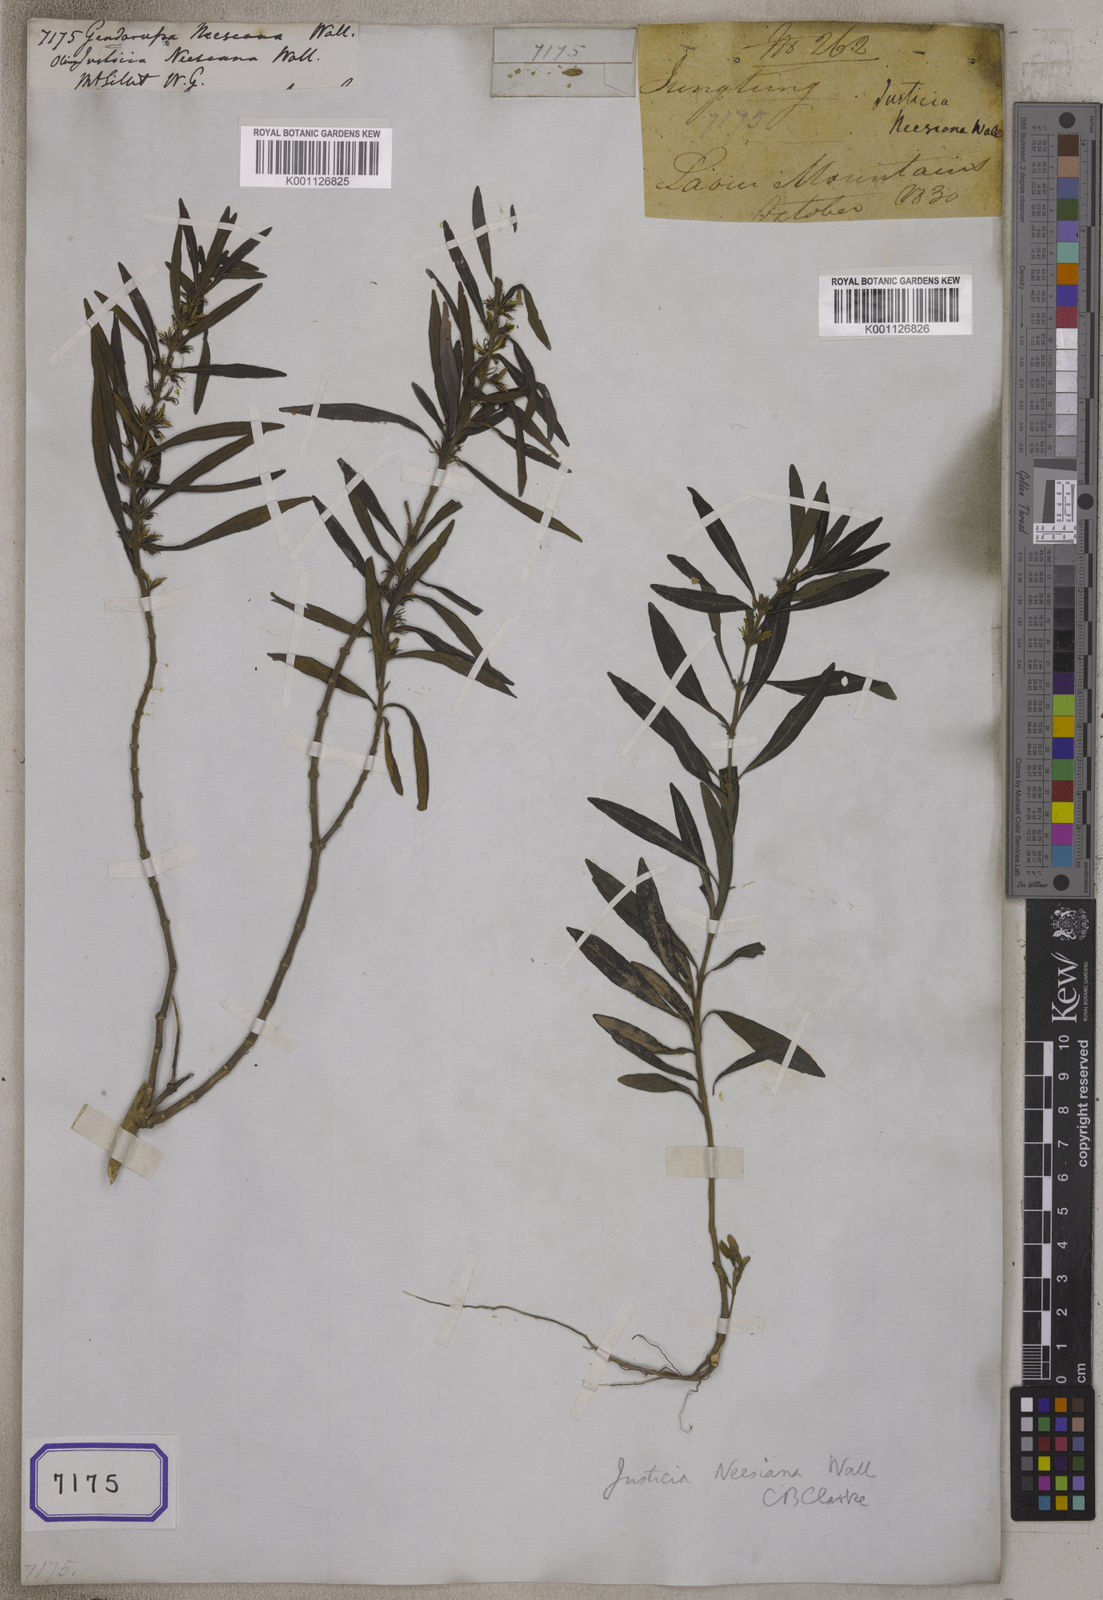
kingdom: Plantae
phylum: Tracheophyta
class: Magnoliopsida
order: Lamiales
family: Acanthaceae
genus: Justicia
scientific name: Justicia neesiana
